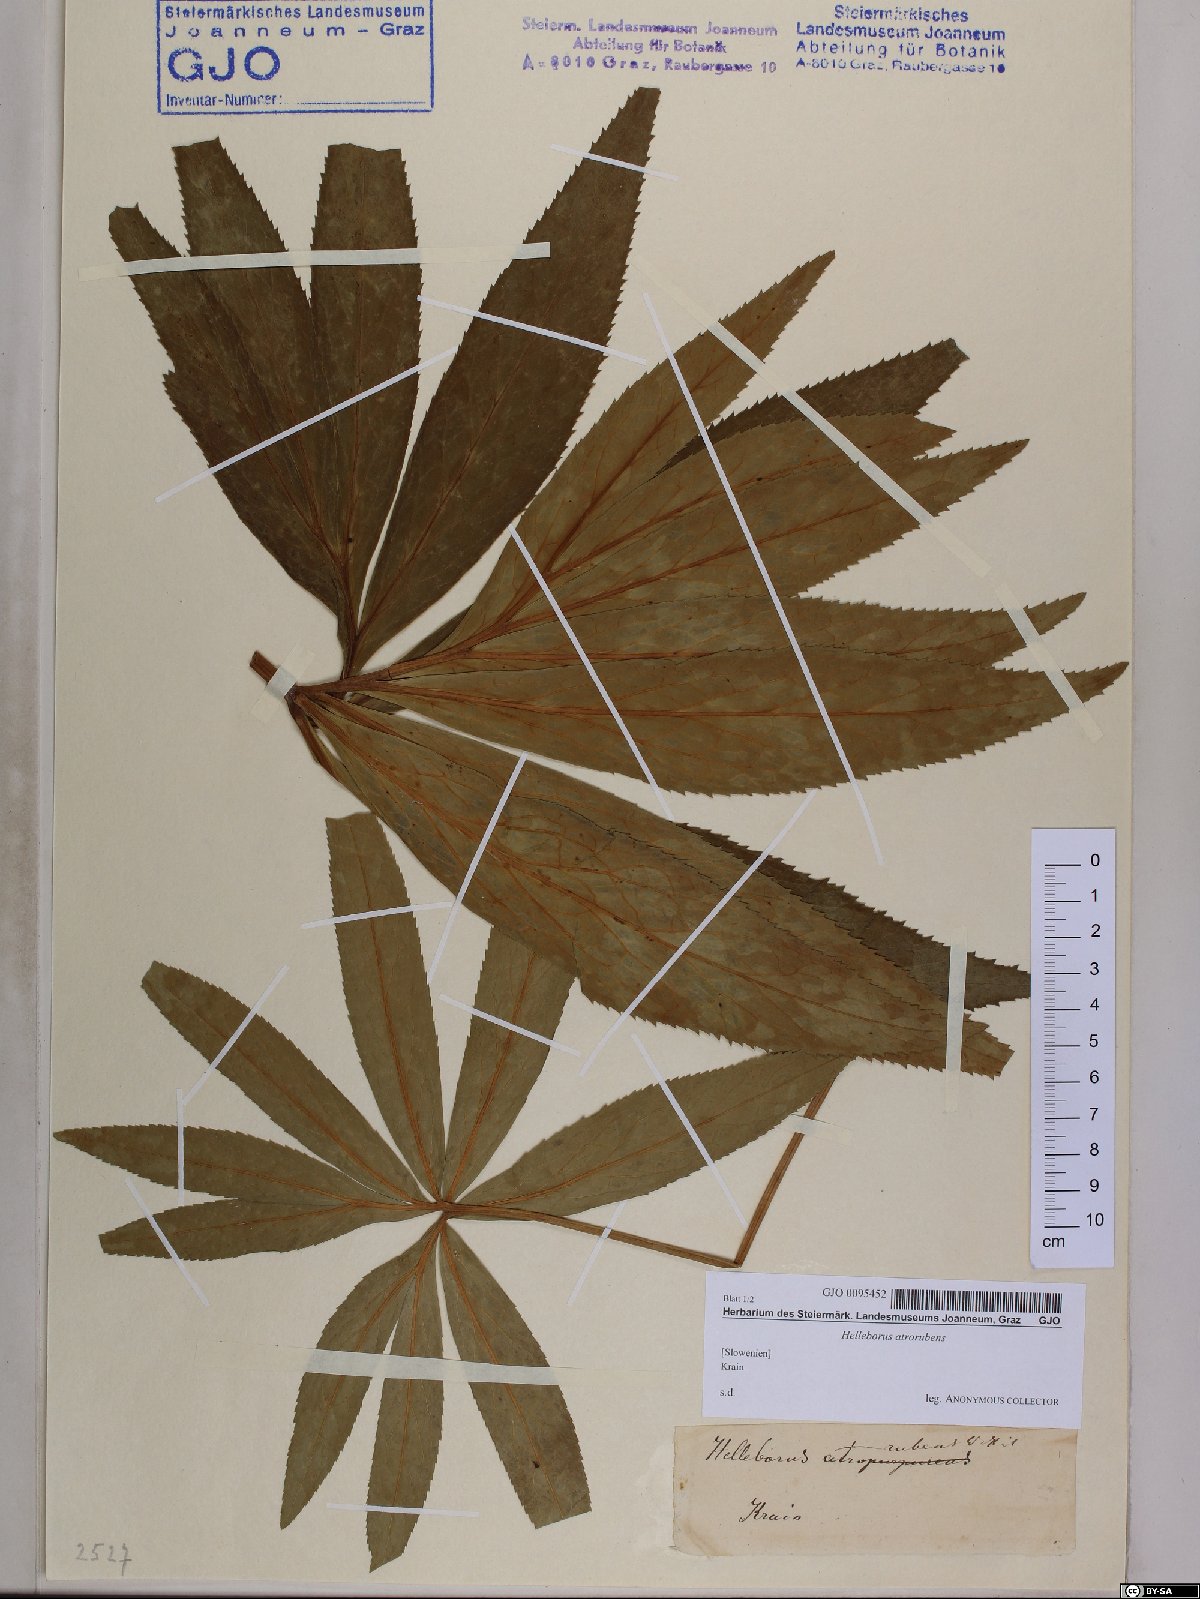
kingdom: Plantae
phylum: Tracheophyta
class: Magnoliopsida
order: Ranunculales
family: Ranunculaceae
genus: Helleborus
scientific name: Helleborus dumetorum
